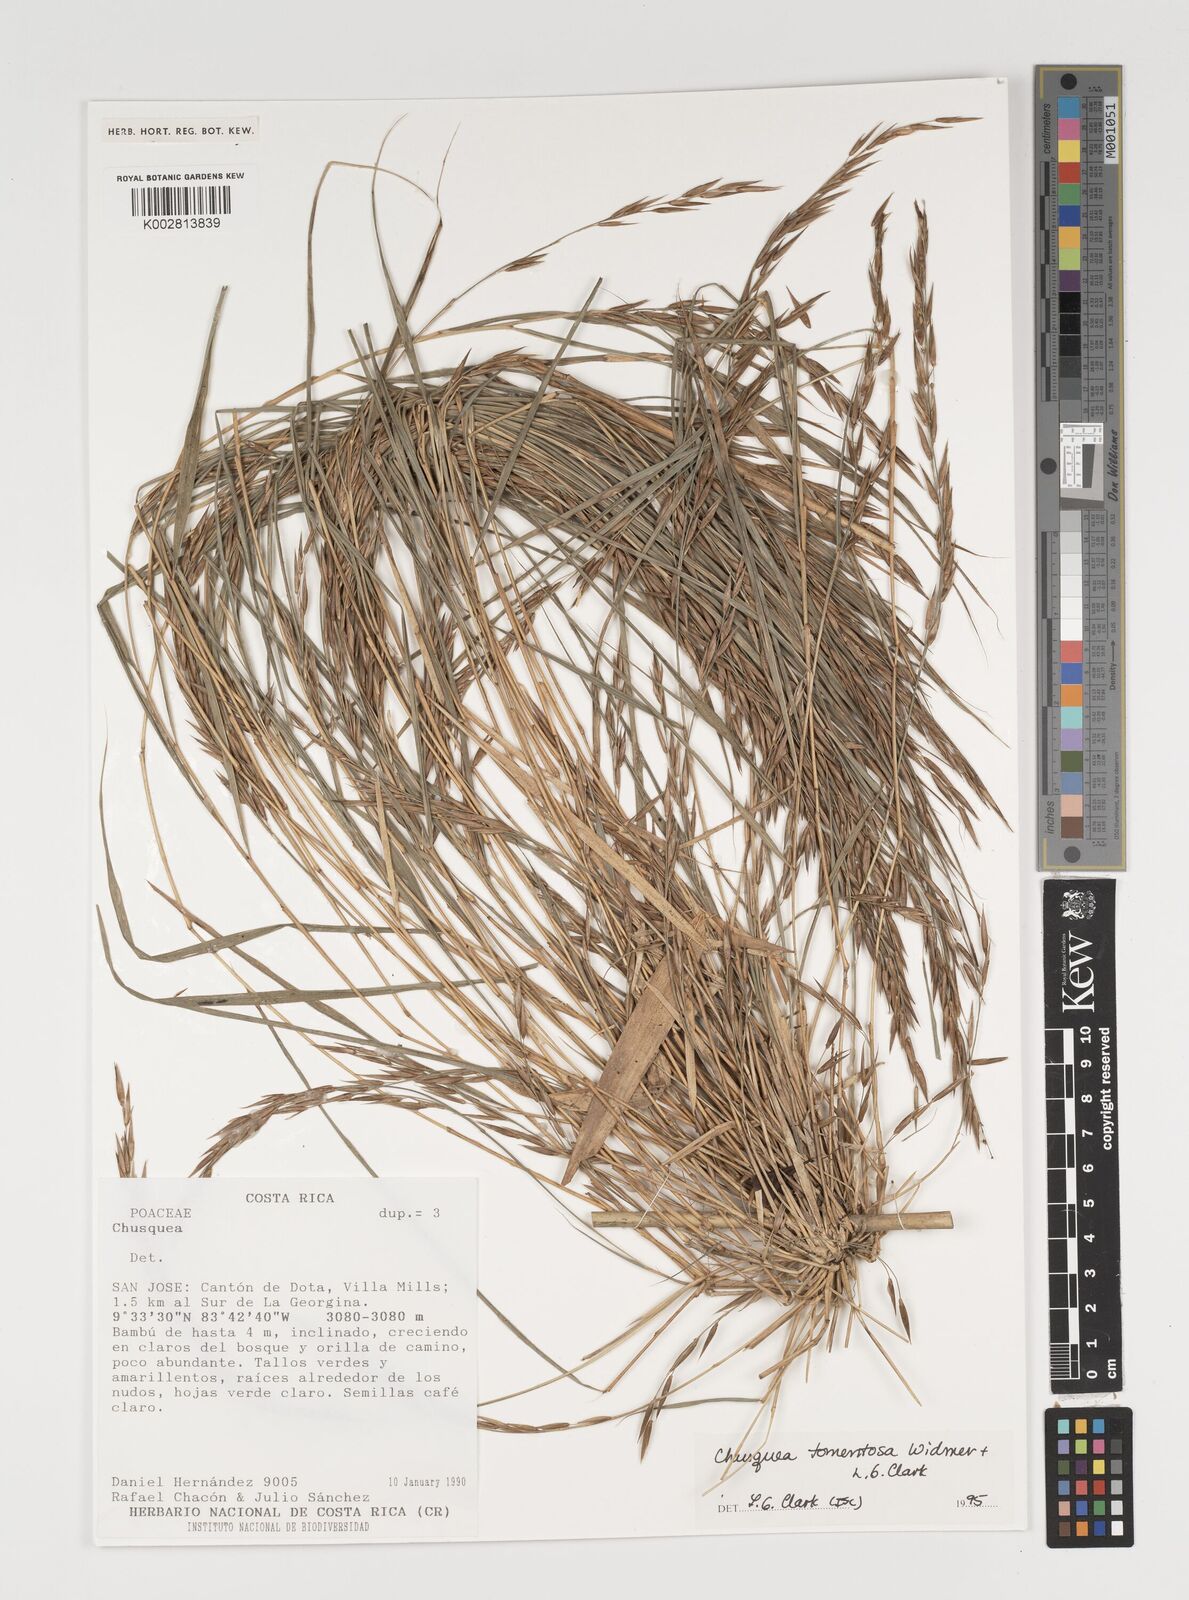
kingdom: Plantae
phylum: Tracheophyta
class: Liliopsida
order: Poales
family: Poaceae
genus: Chusquea
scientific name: Chusquea tomentosa
